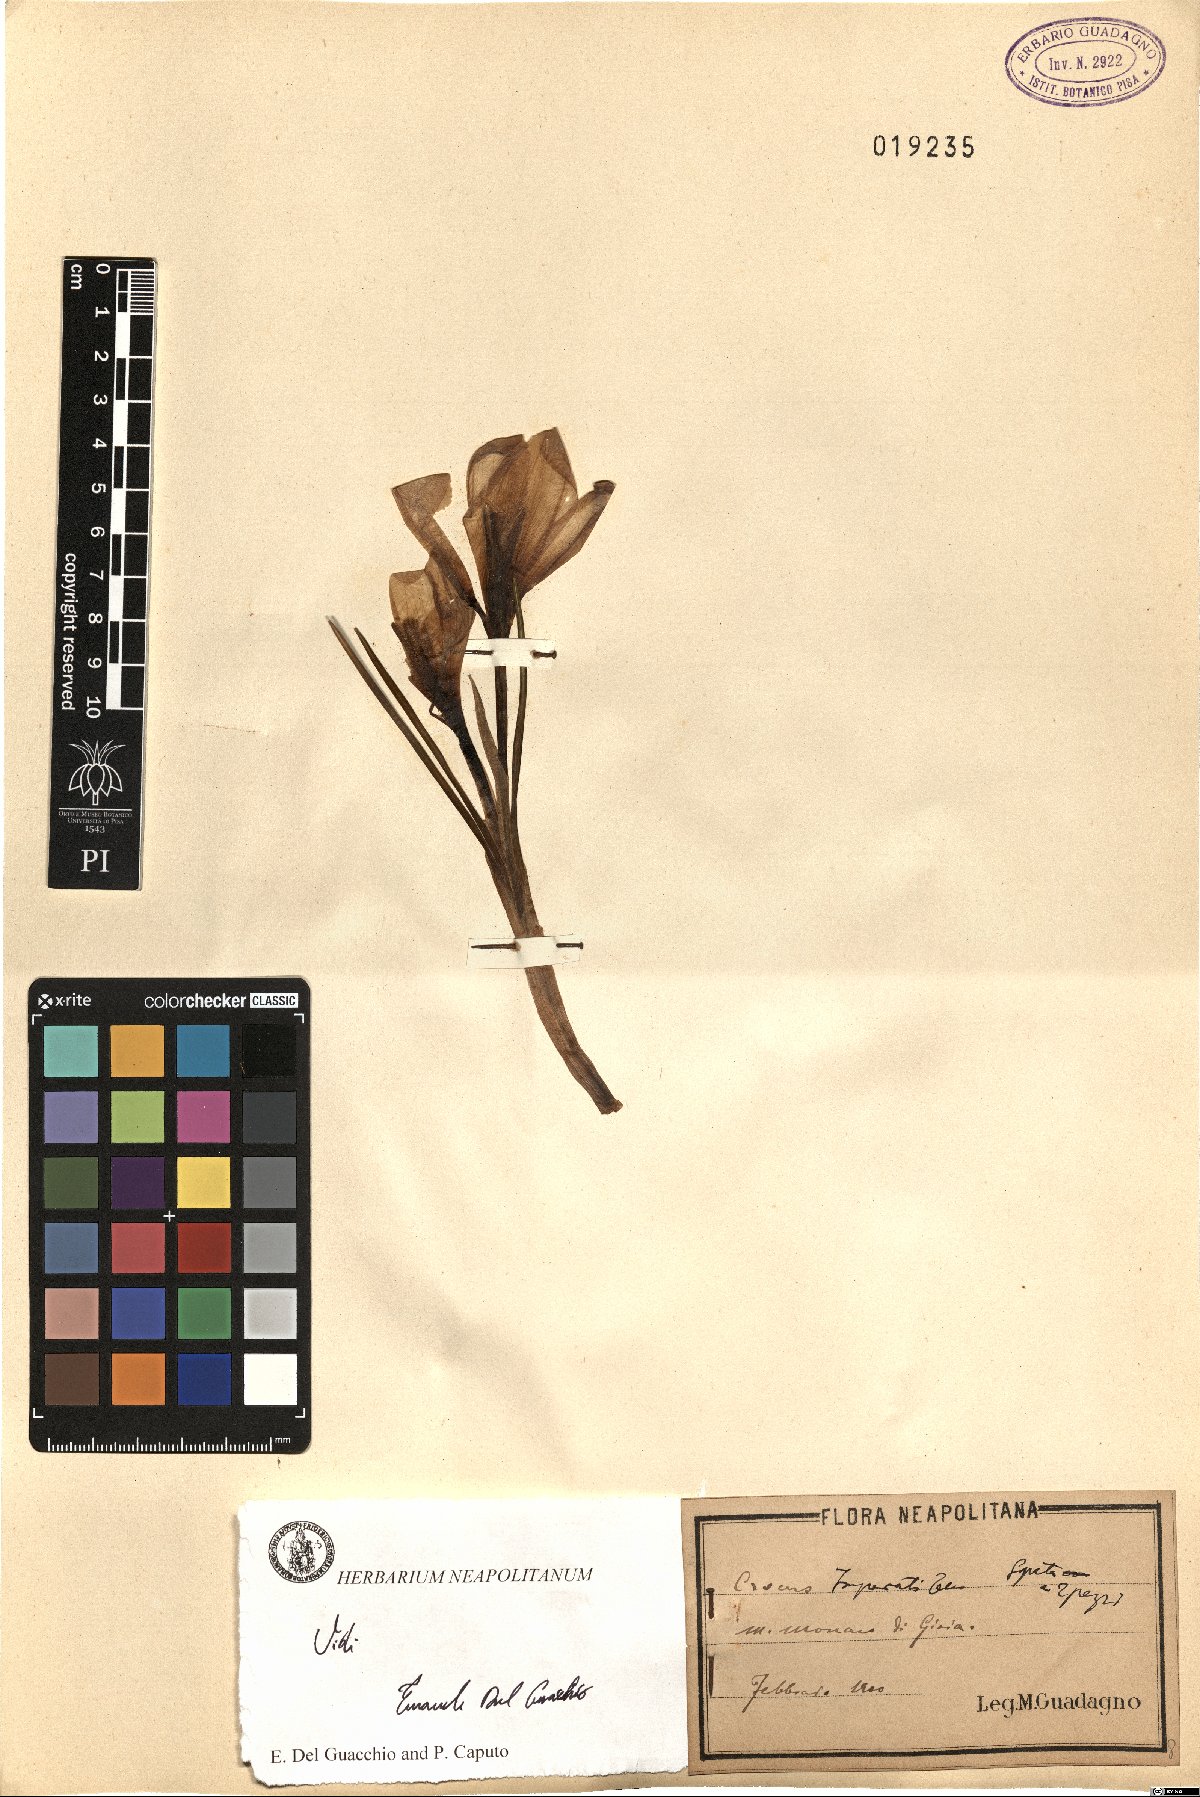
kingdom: Plantae
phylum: Tracheophyta
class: Liliopsida
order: Asparagales
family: Iridaceae
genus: Crocus
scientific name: Crocus imperati
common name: Early crocus
